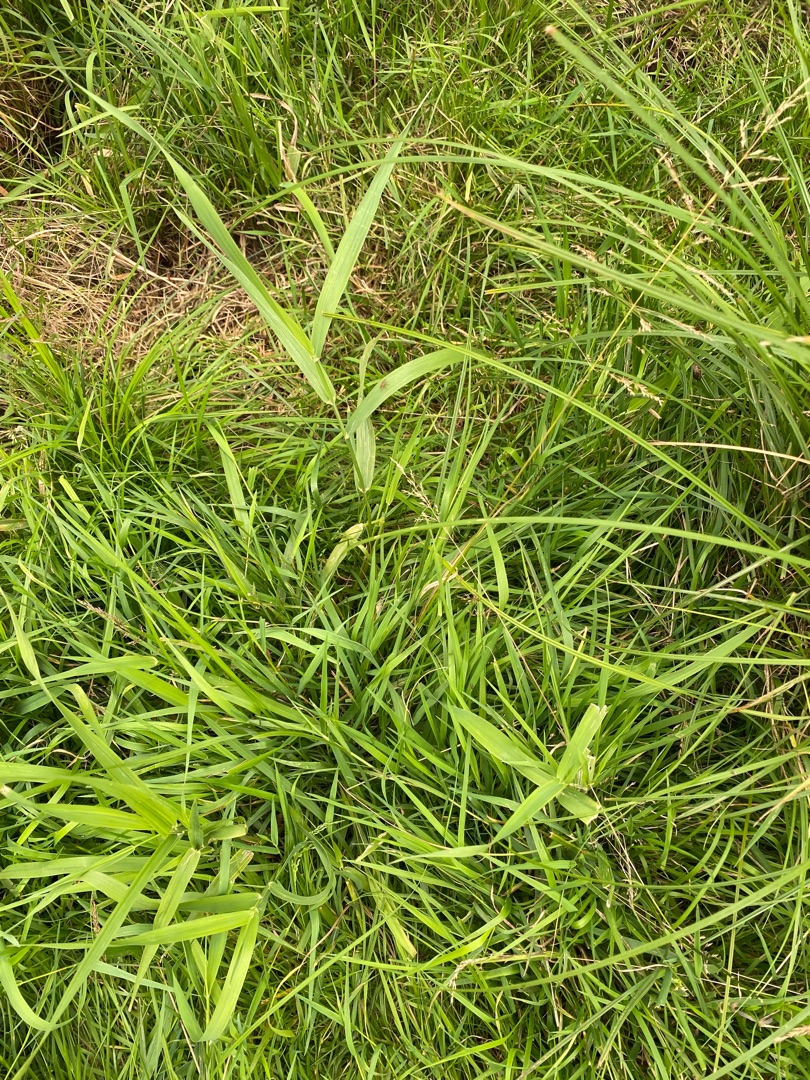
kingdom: Plantae
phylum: Tracheophyta
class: Liliopsida
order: Poales
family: Poaceae
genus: Glyceria
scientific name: Glyceria fluitans
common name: Manna-sødgræs
